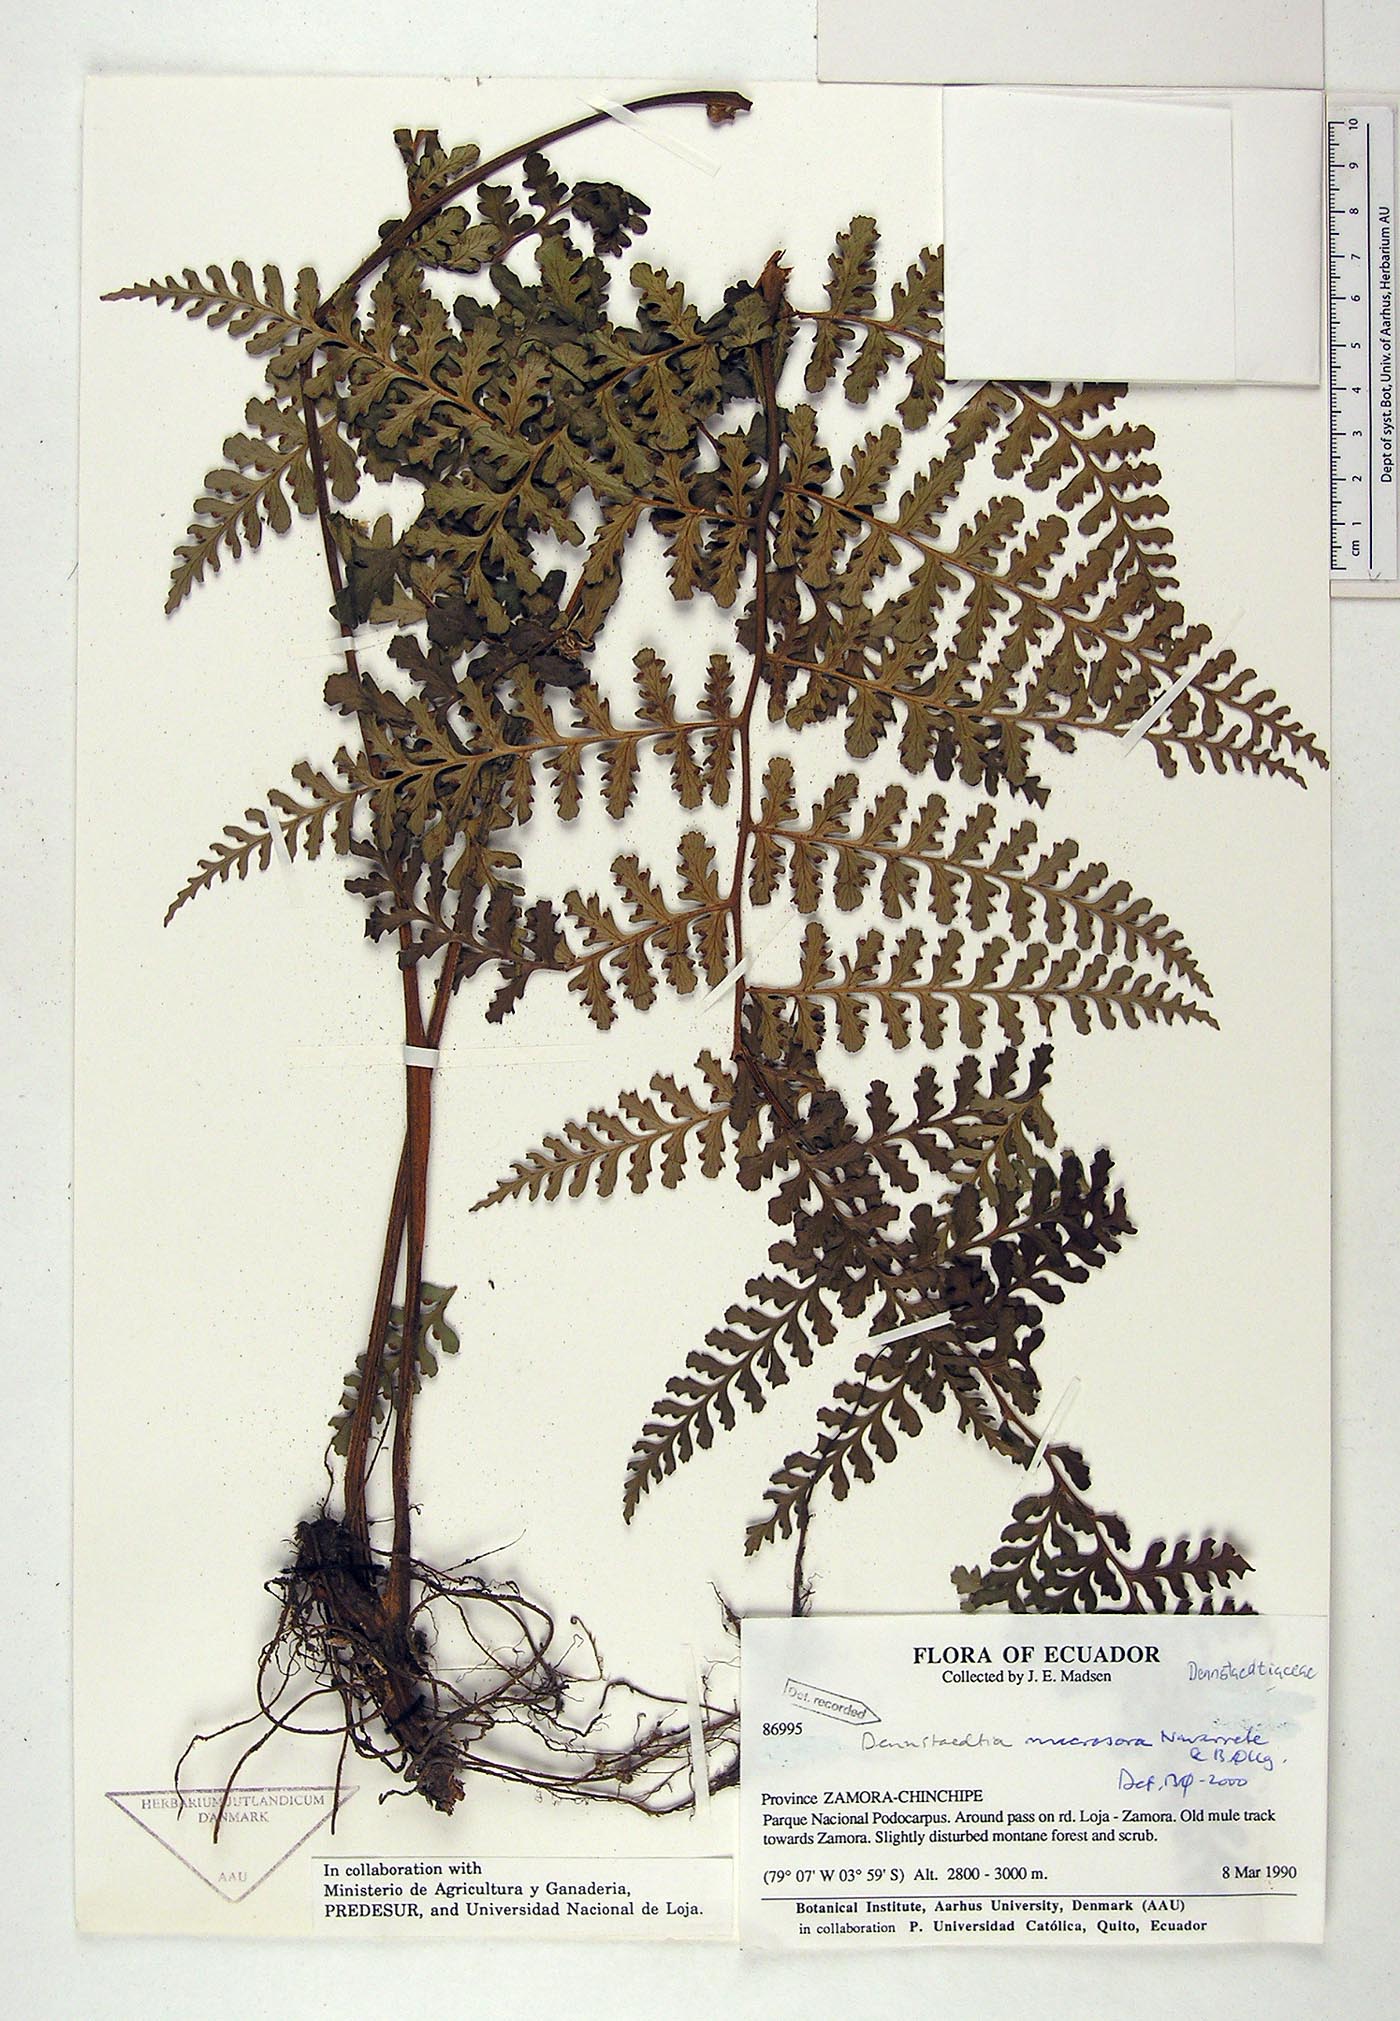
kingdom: Plantae
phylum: Tracheophyta
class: Polypodiopsida
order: Polypodiales
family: Dennstaedtiaceae
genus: Dennstaedtia
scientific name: Dennstaedtia macrosora
